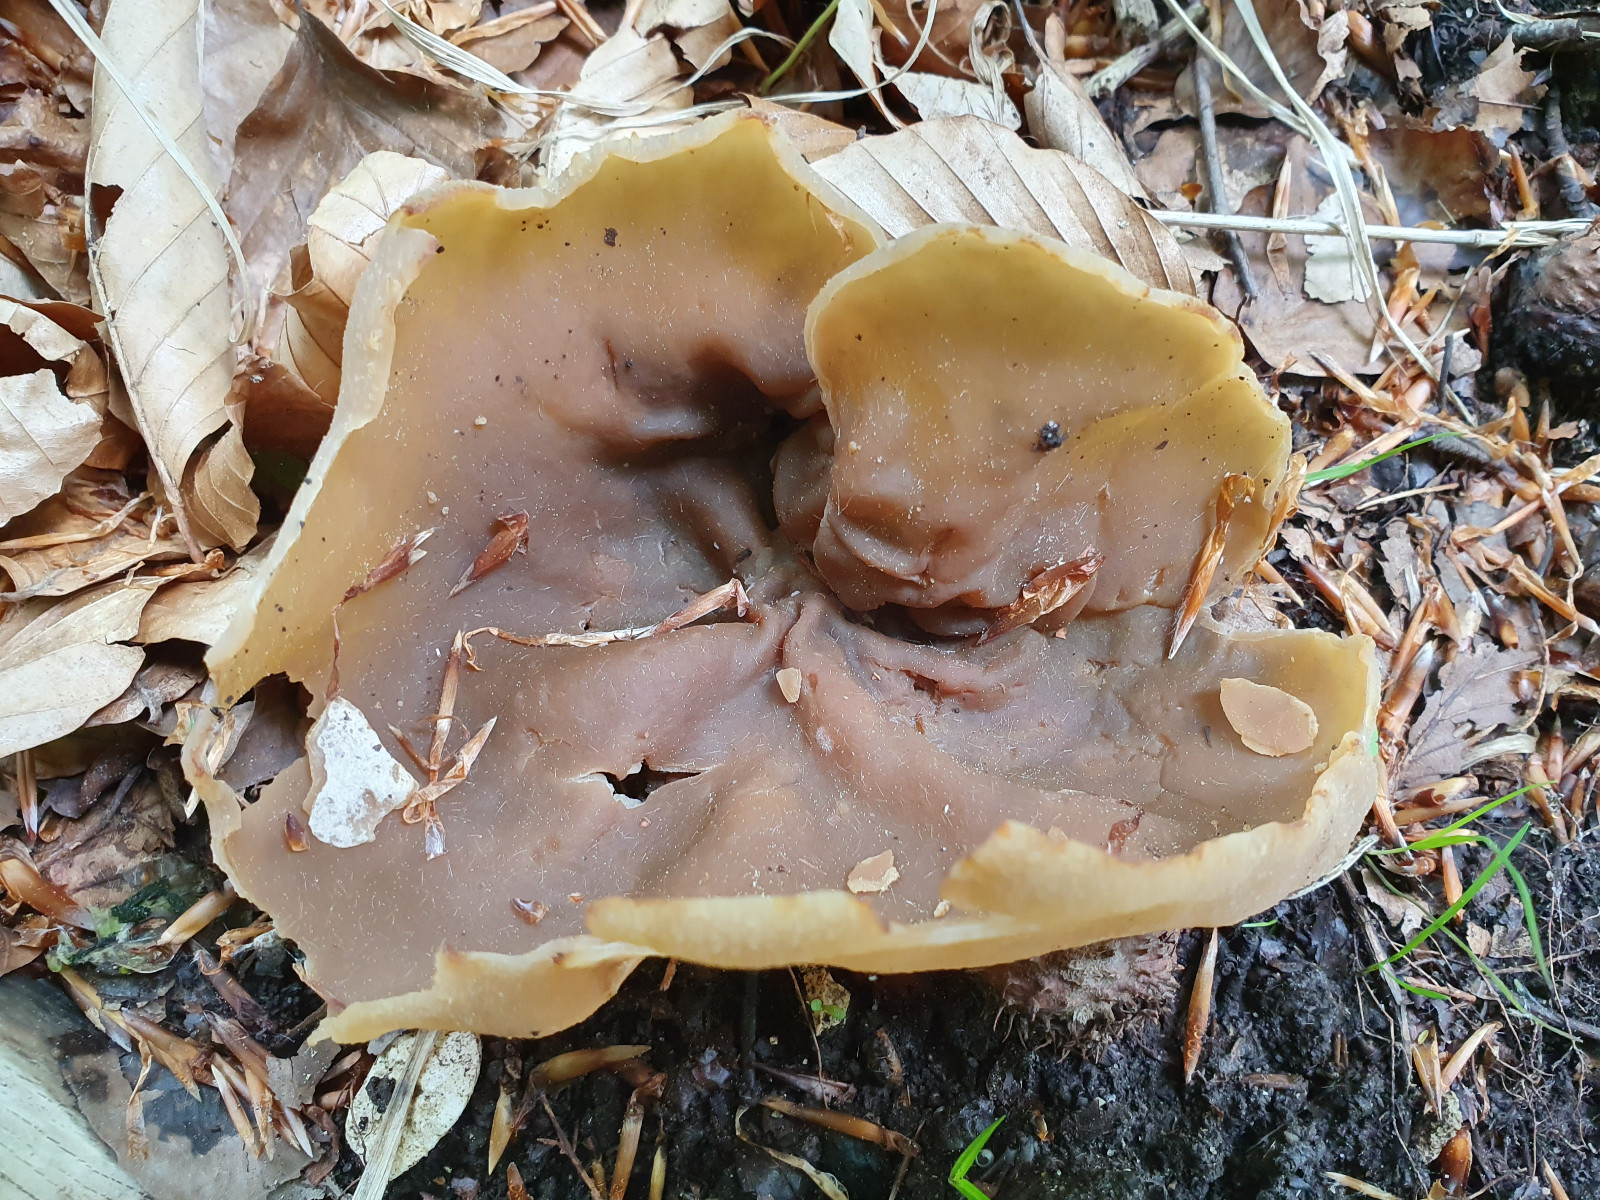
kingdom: Fungi
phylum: Ascomycota
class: Pezizomycetes
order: Pezizales
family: Pezizaceae
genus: Peziza
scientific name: Peziza
